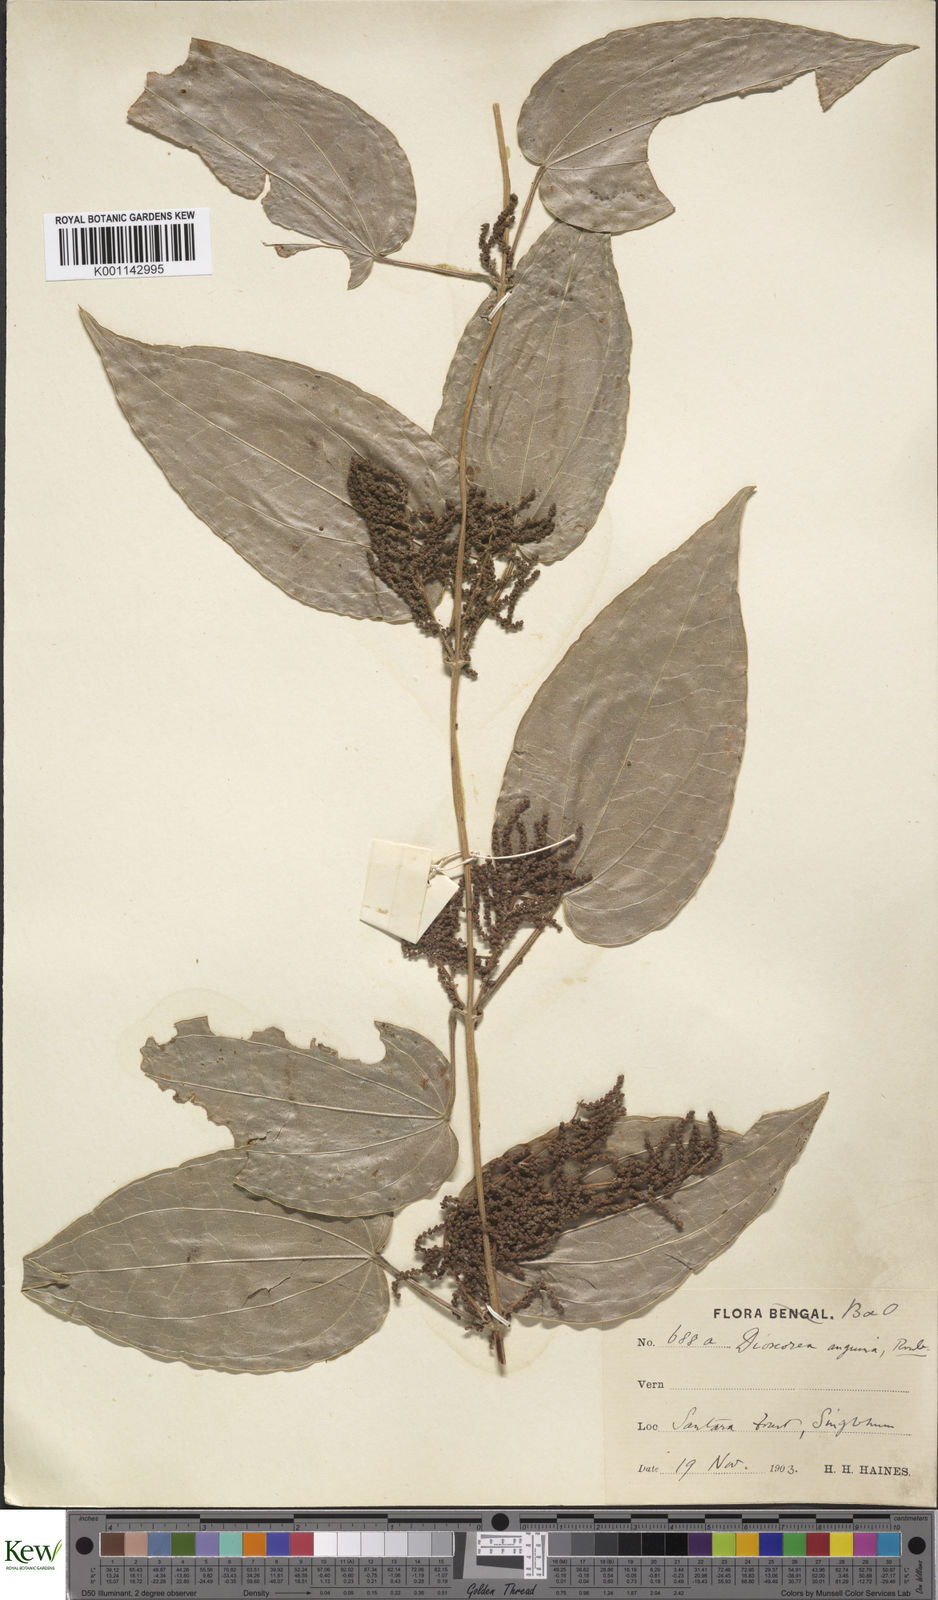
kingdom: Plantae
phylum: Tracheophyta
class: Liliopsida
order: Dioscoreales
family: Dioscoreaceae
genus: Dioscorea
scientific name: Dioscorea pubera
